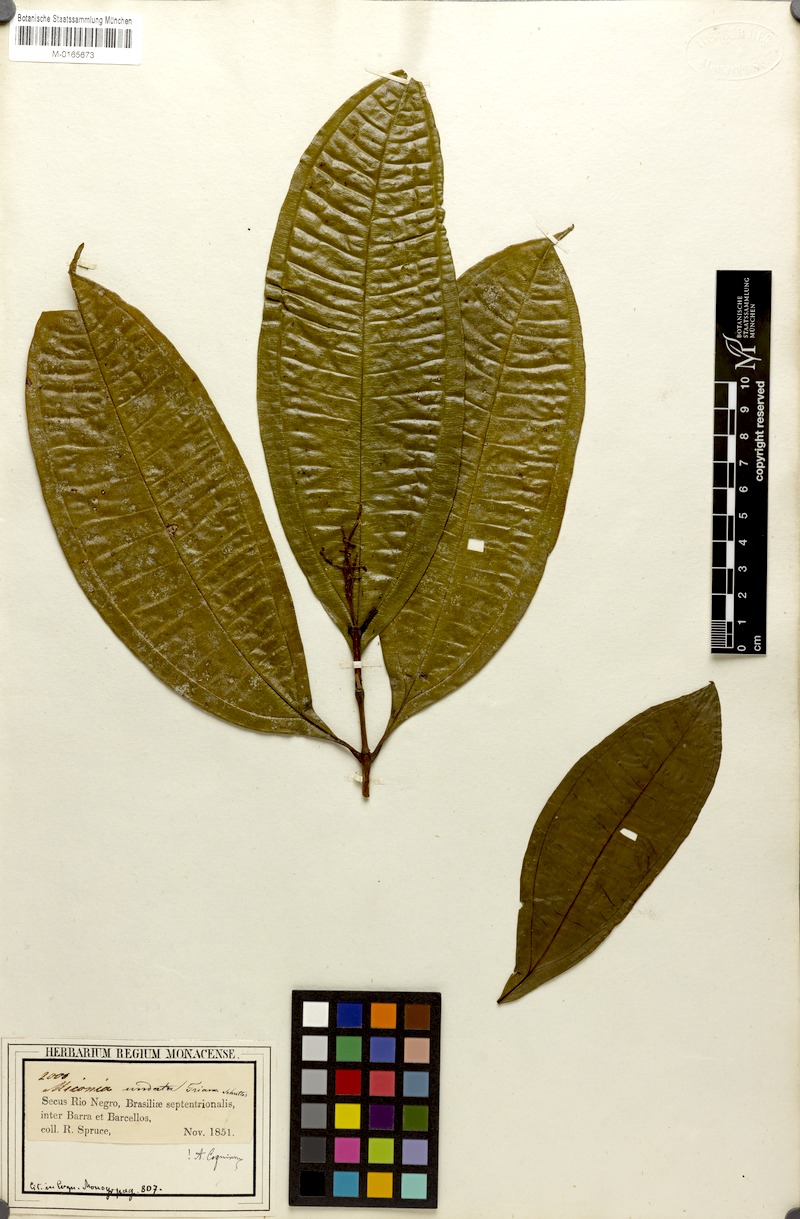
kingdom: Plantae
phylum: Tracheophyta
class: Magnoliopsida
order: Myrtales
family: Melastomataceae
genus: Miconia
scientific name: Miconia undata
